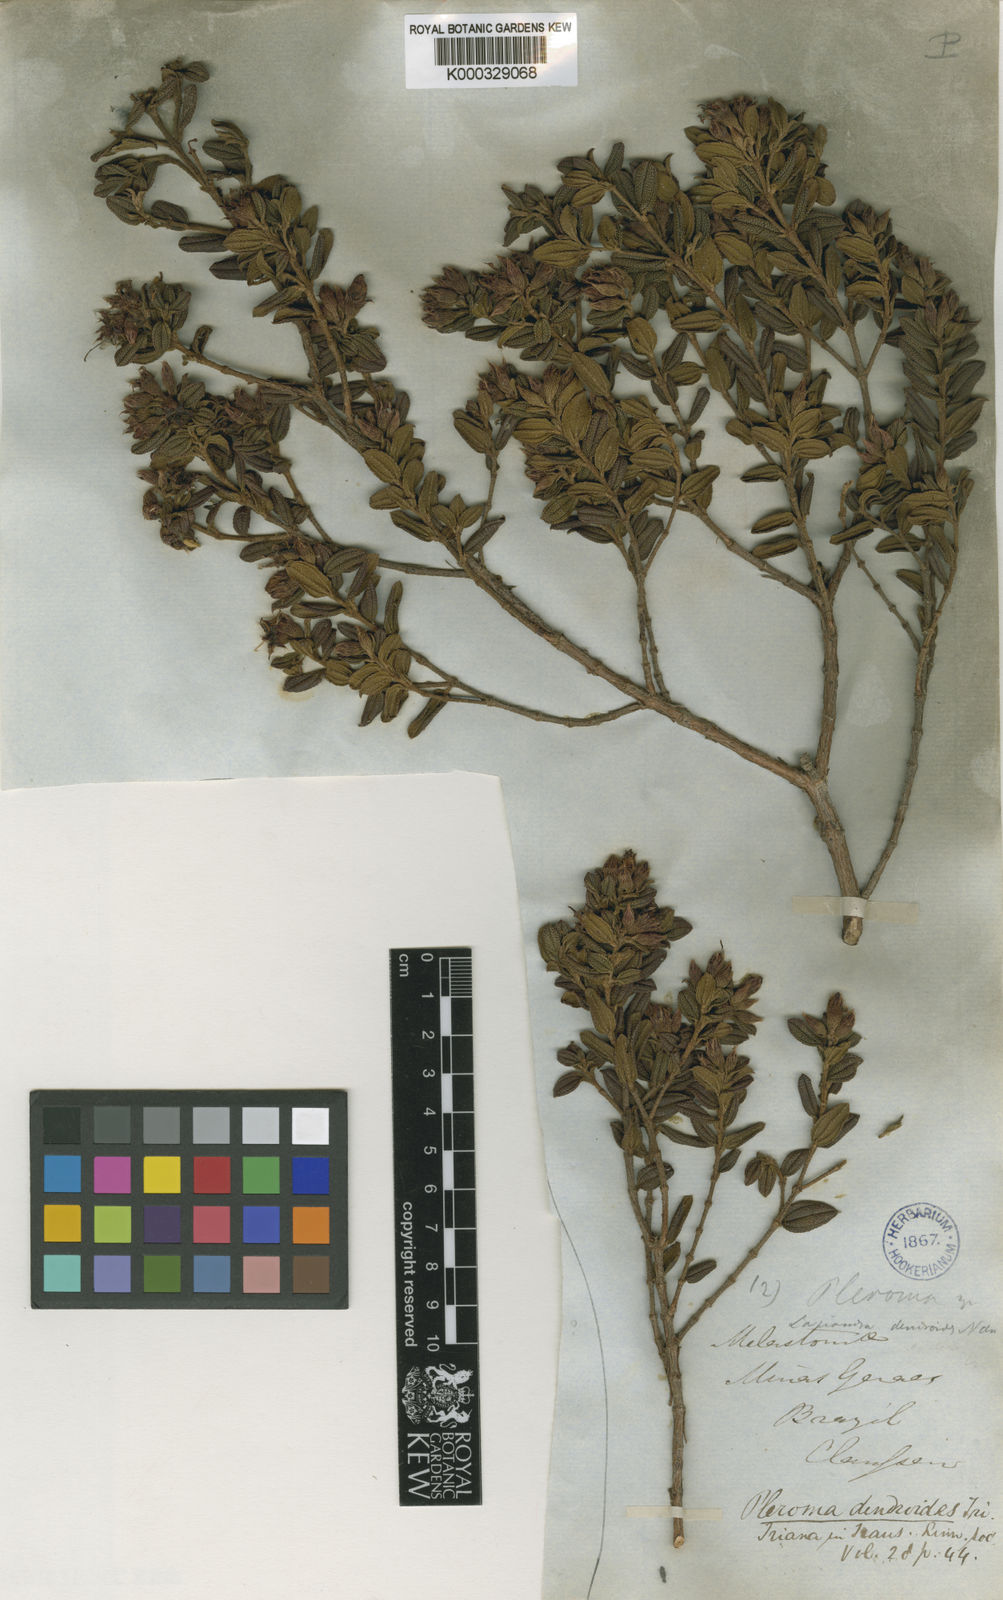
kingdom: Plantae
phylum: Tracheophyta
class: Magnoliopsida
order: Myrtales
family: Melastomataceae
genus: Pleroma
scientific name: Pleroma dendroides
